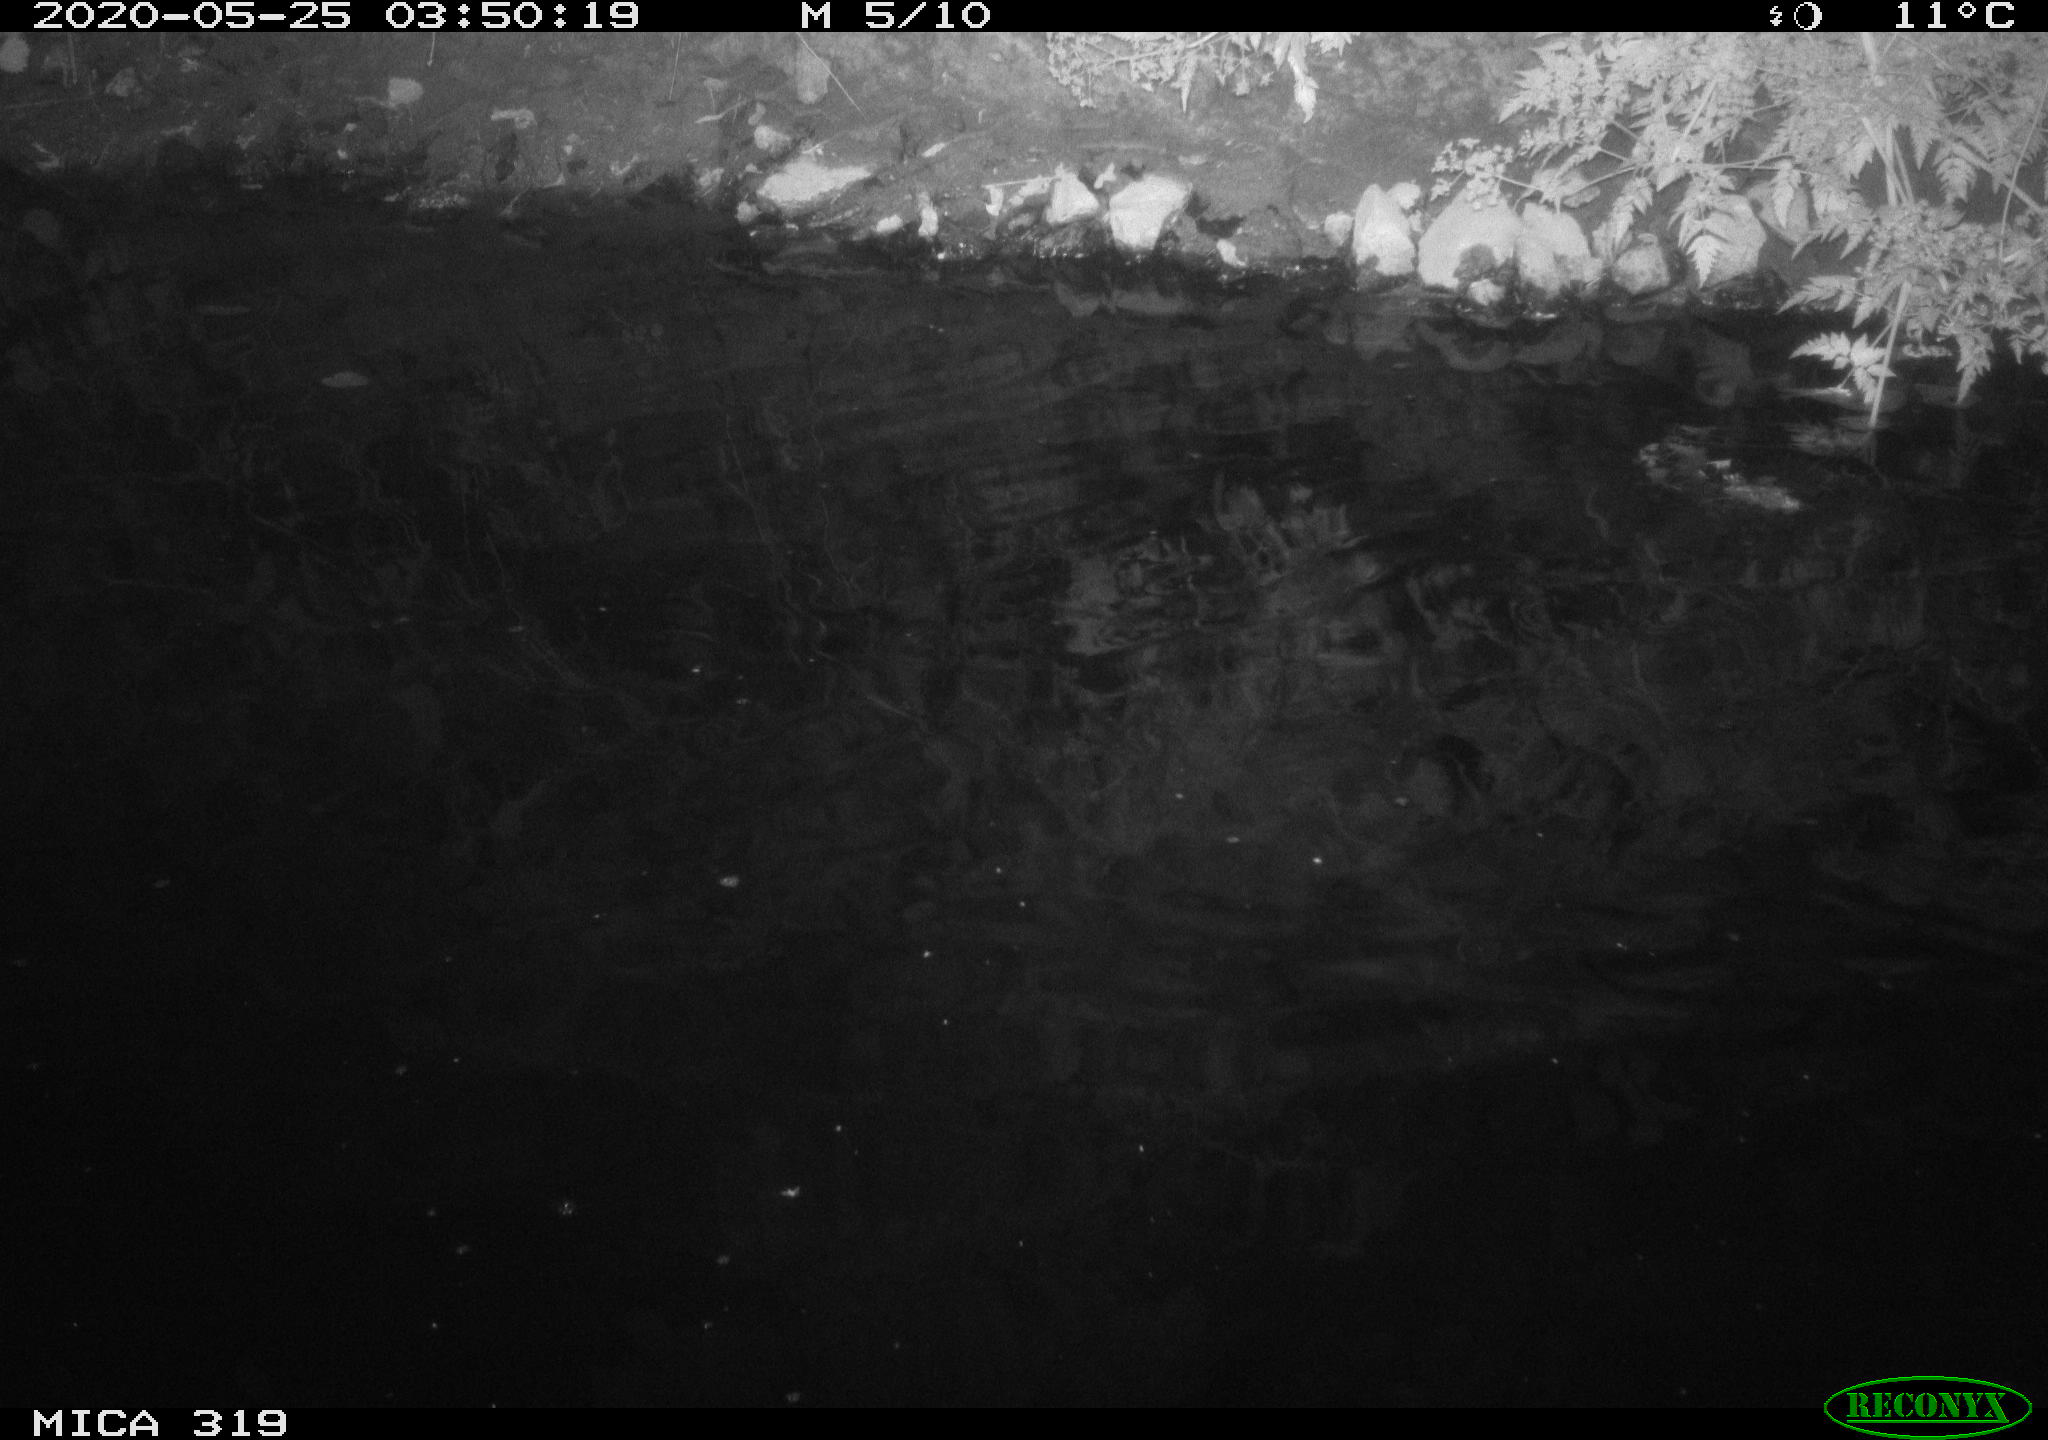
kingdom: Animalia
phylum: Chordata
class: Aves
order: Anseriformes
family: Anatidae
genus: Anas
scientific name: Anas platyrhynchos
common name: Mallard
